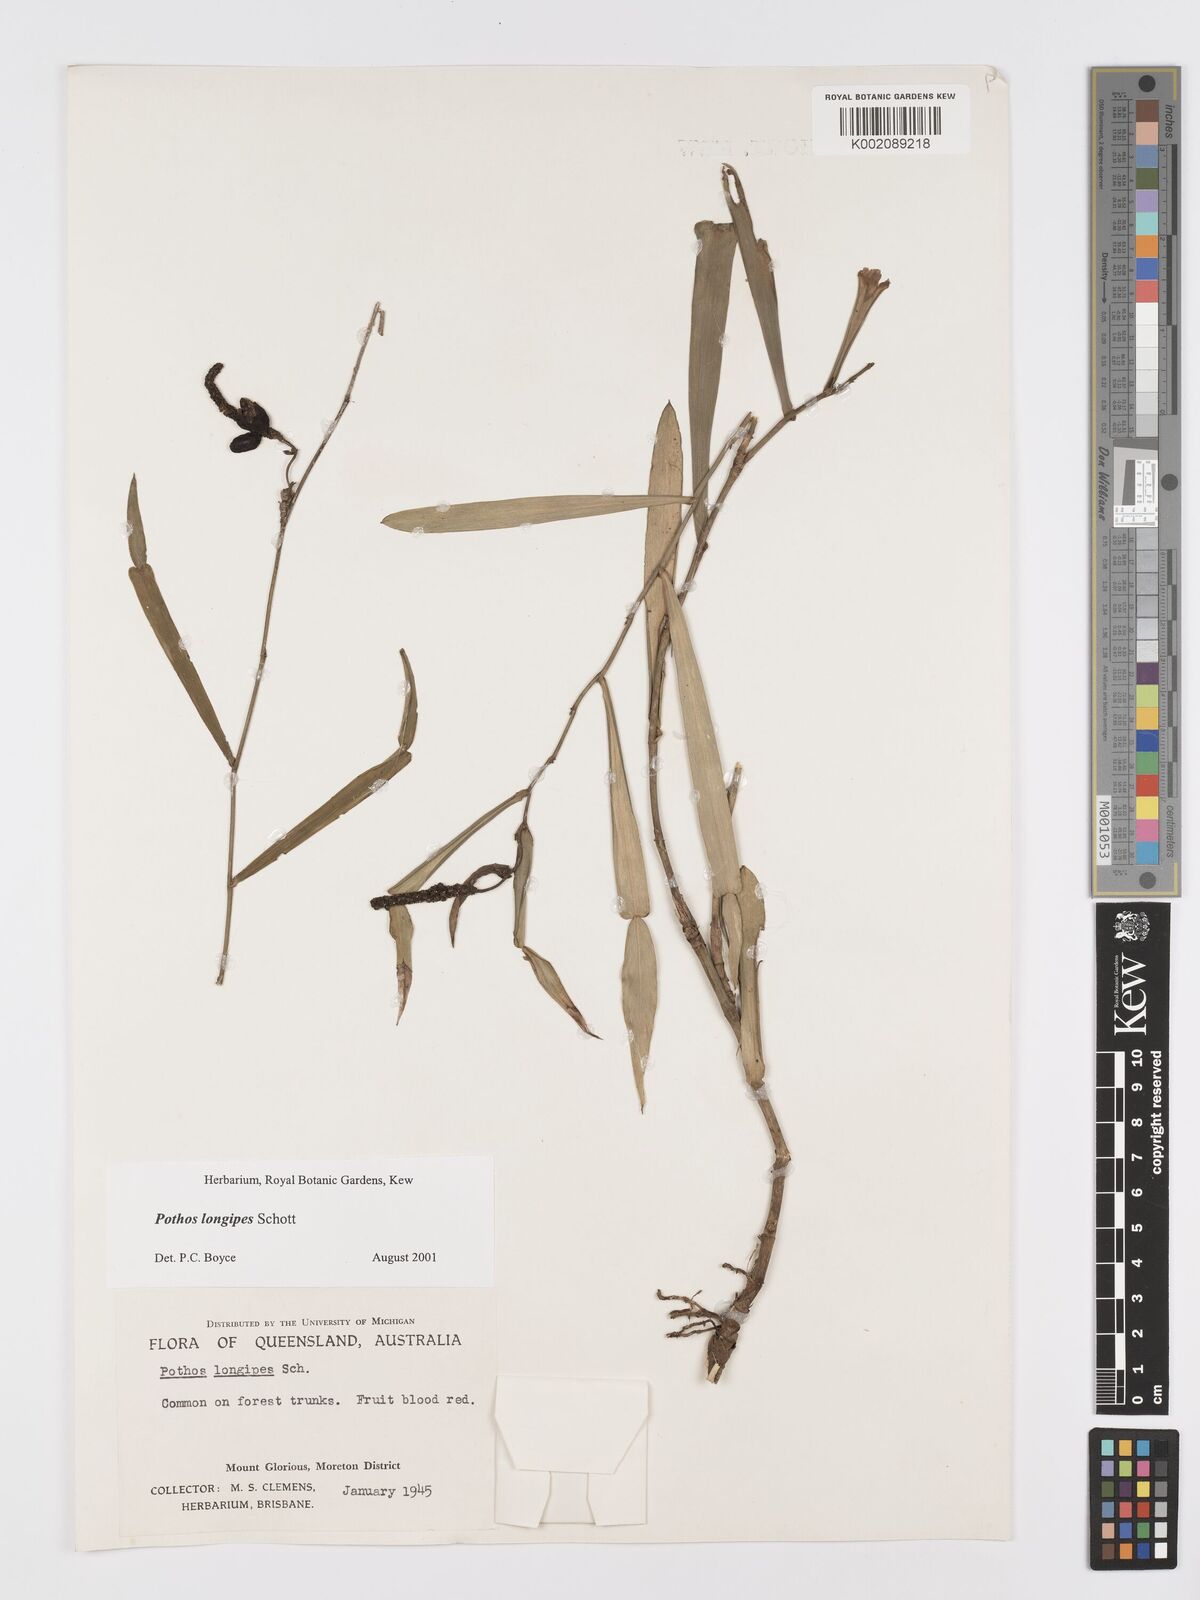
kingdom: Plantae
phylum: Tracheophyta
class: Liliopsida
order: Alismatales
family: Araceae
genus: Pothos
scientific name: Pothos longipes
